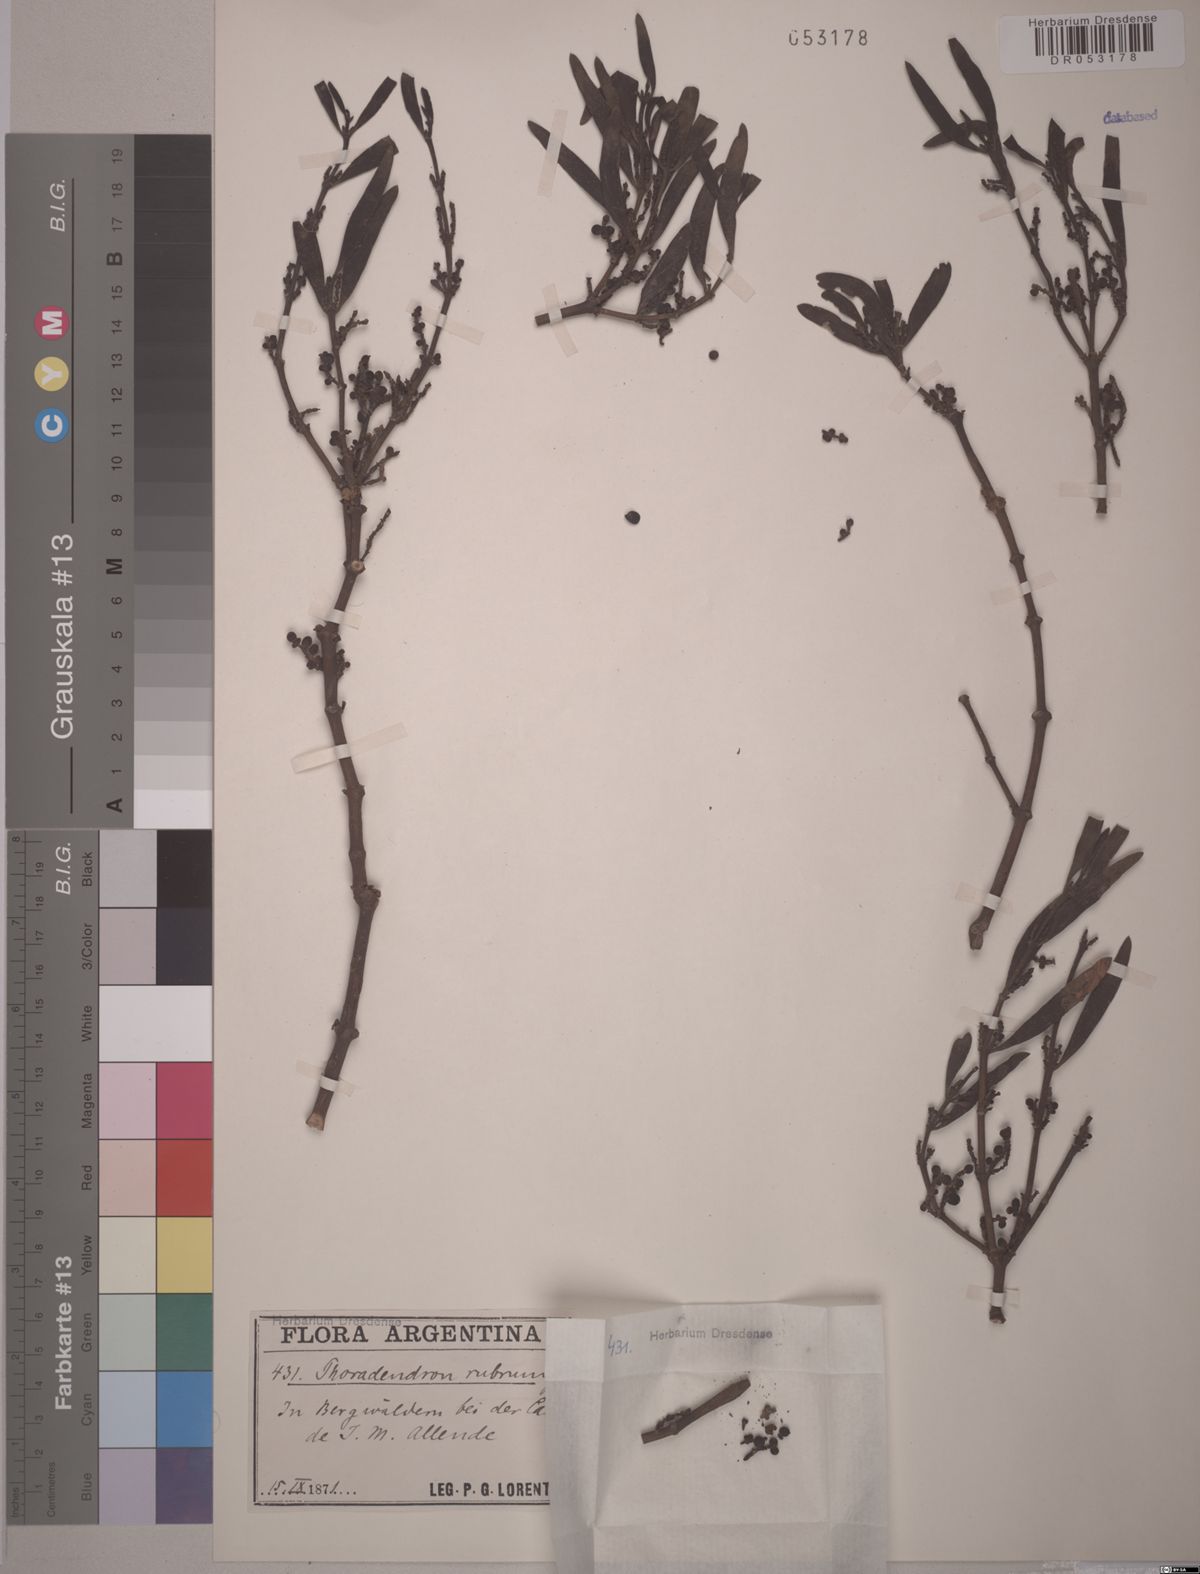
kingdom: Plantae
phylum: Tracheophyta
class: Magnoliopsida
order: Santalales
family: Viscaceae
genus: Phoradendron
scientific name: Phoradendron rubrum
